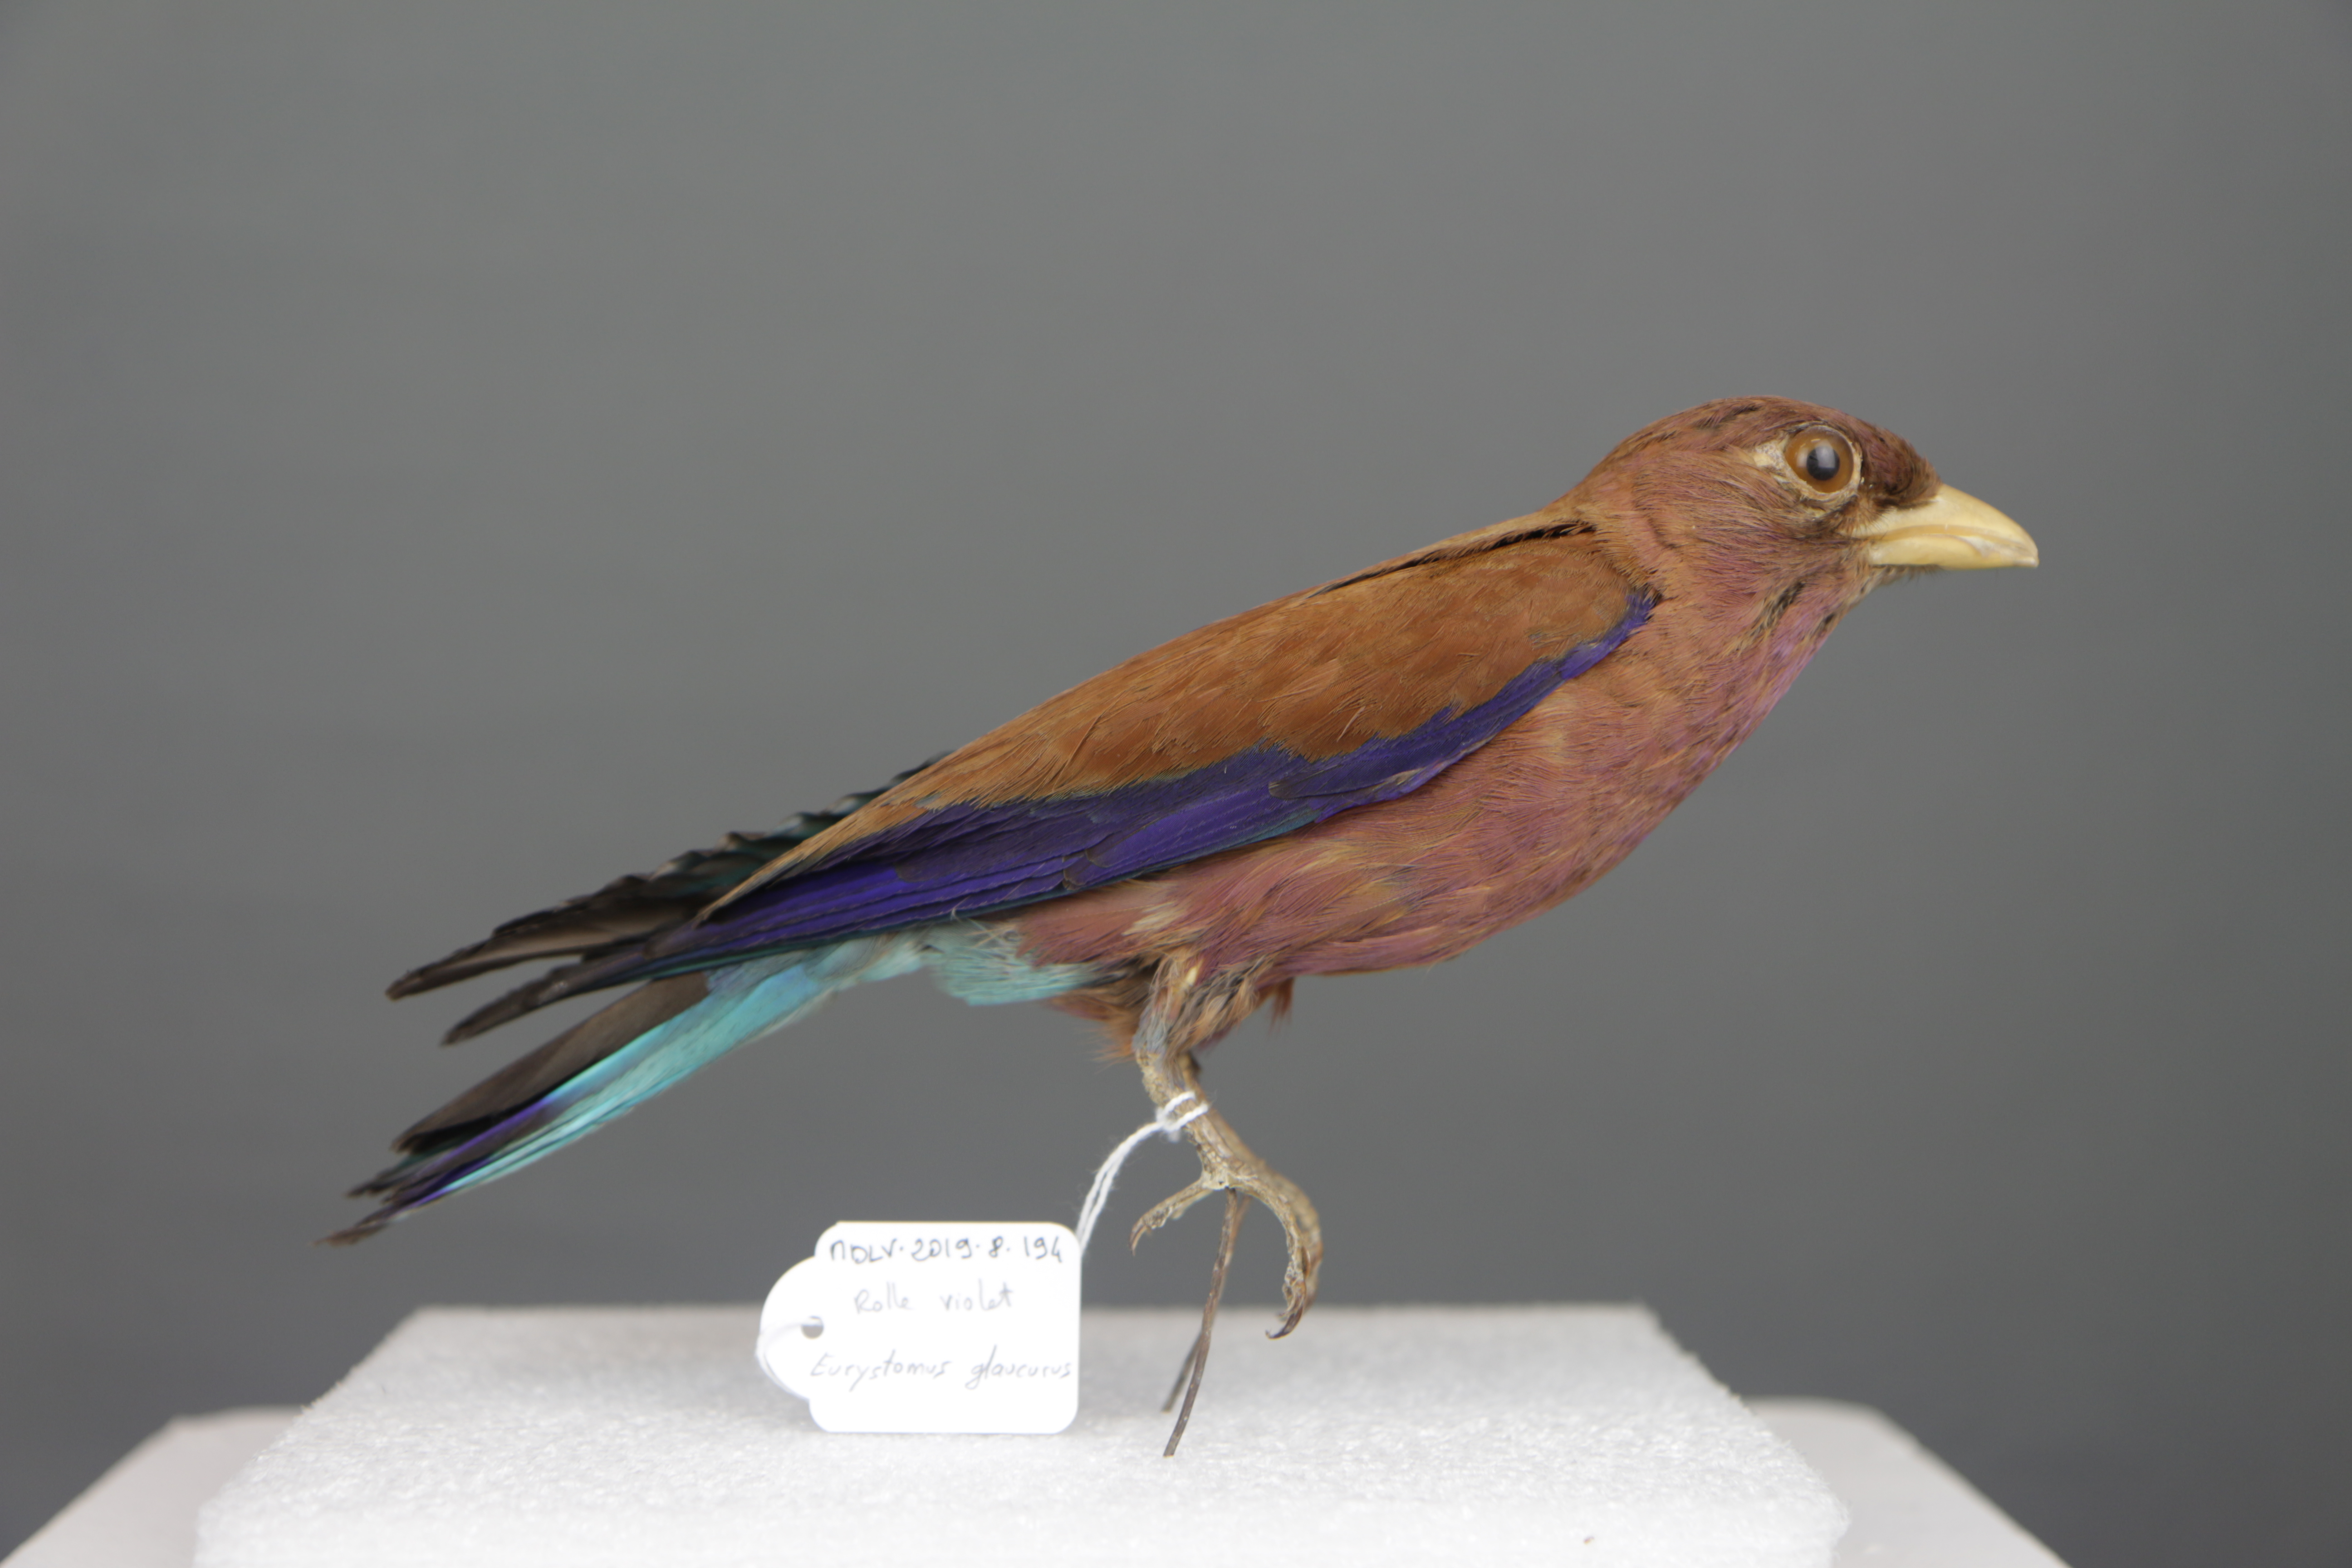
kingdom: Animalia
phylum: Chordata
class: Aves
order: Coraciiformes
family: Coraciidae
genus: Eurystomus
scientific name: Eurystomus glaucurus
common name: Broad-billed roller
